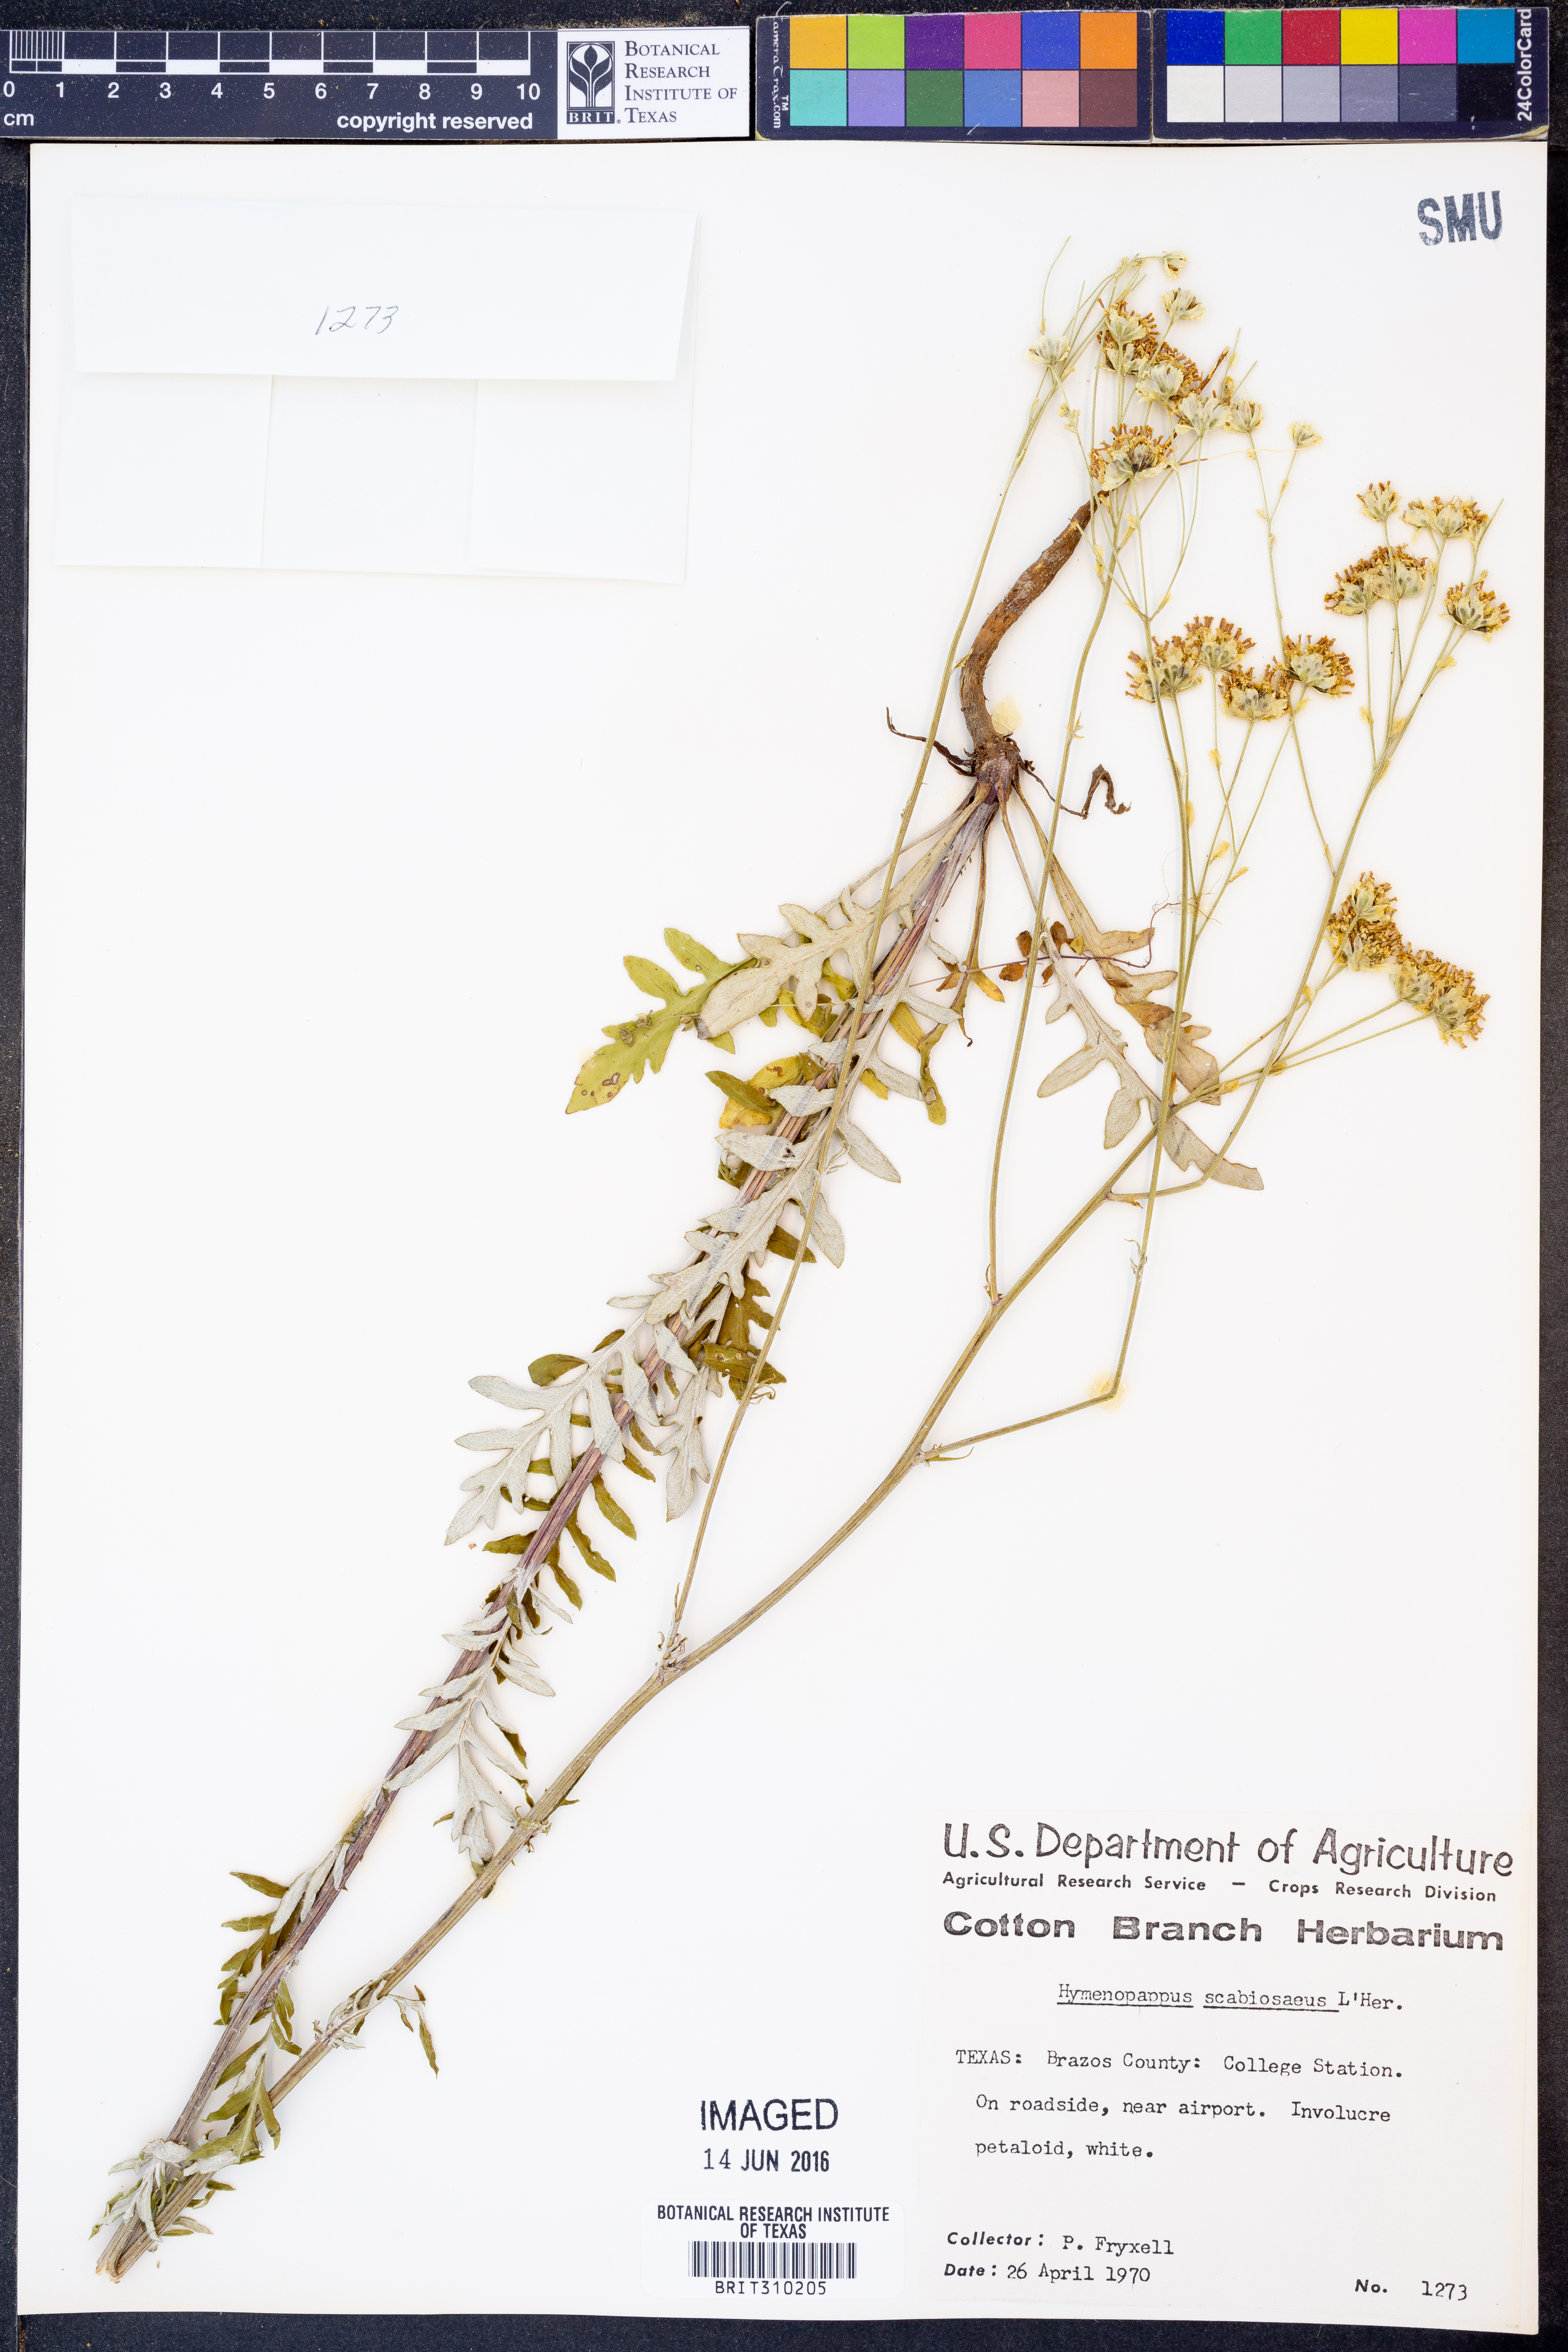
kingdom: Plantae
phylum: Tracheophyta
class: Magnoliopsida
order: Asterales
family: Asteraceae
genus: Hymenopappus
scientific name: Hymenopappus scabiosaeus
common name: Carolina woollywhite
